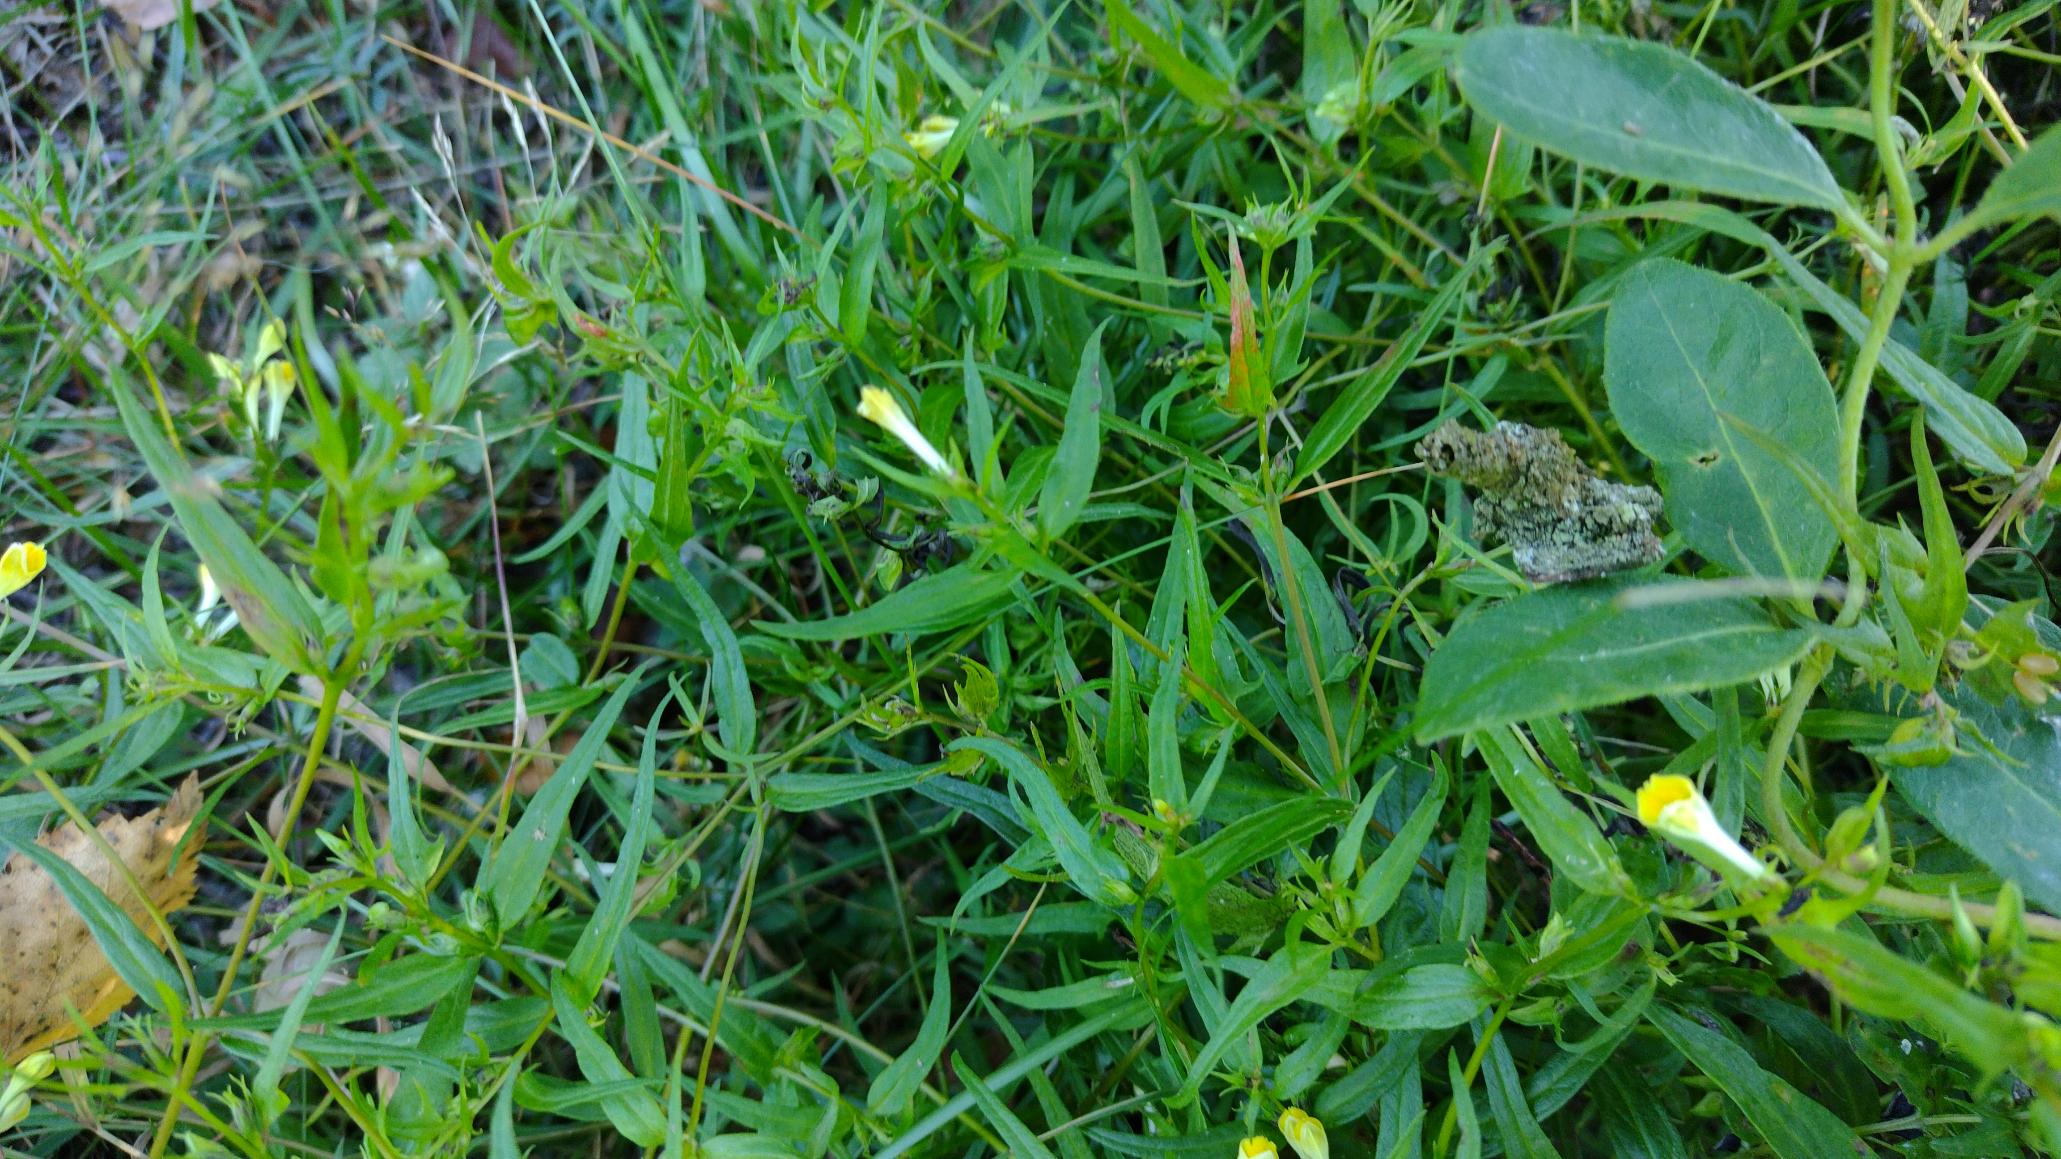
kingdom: Plantae
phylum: Tracheophyta
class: Magnoliopsida
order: Lamiales
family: Orobanchaceae
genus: Melampyrum
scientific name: Melampyrum pratense
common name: Almindelig kohvede
